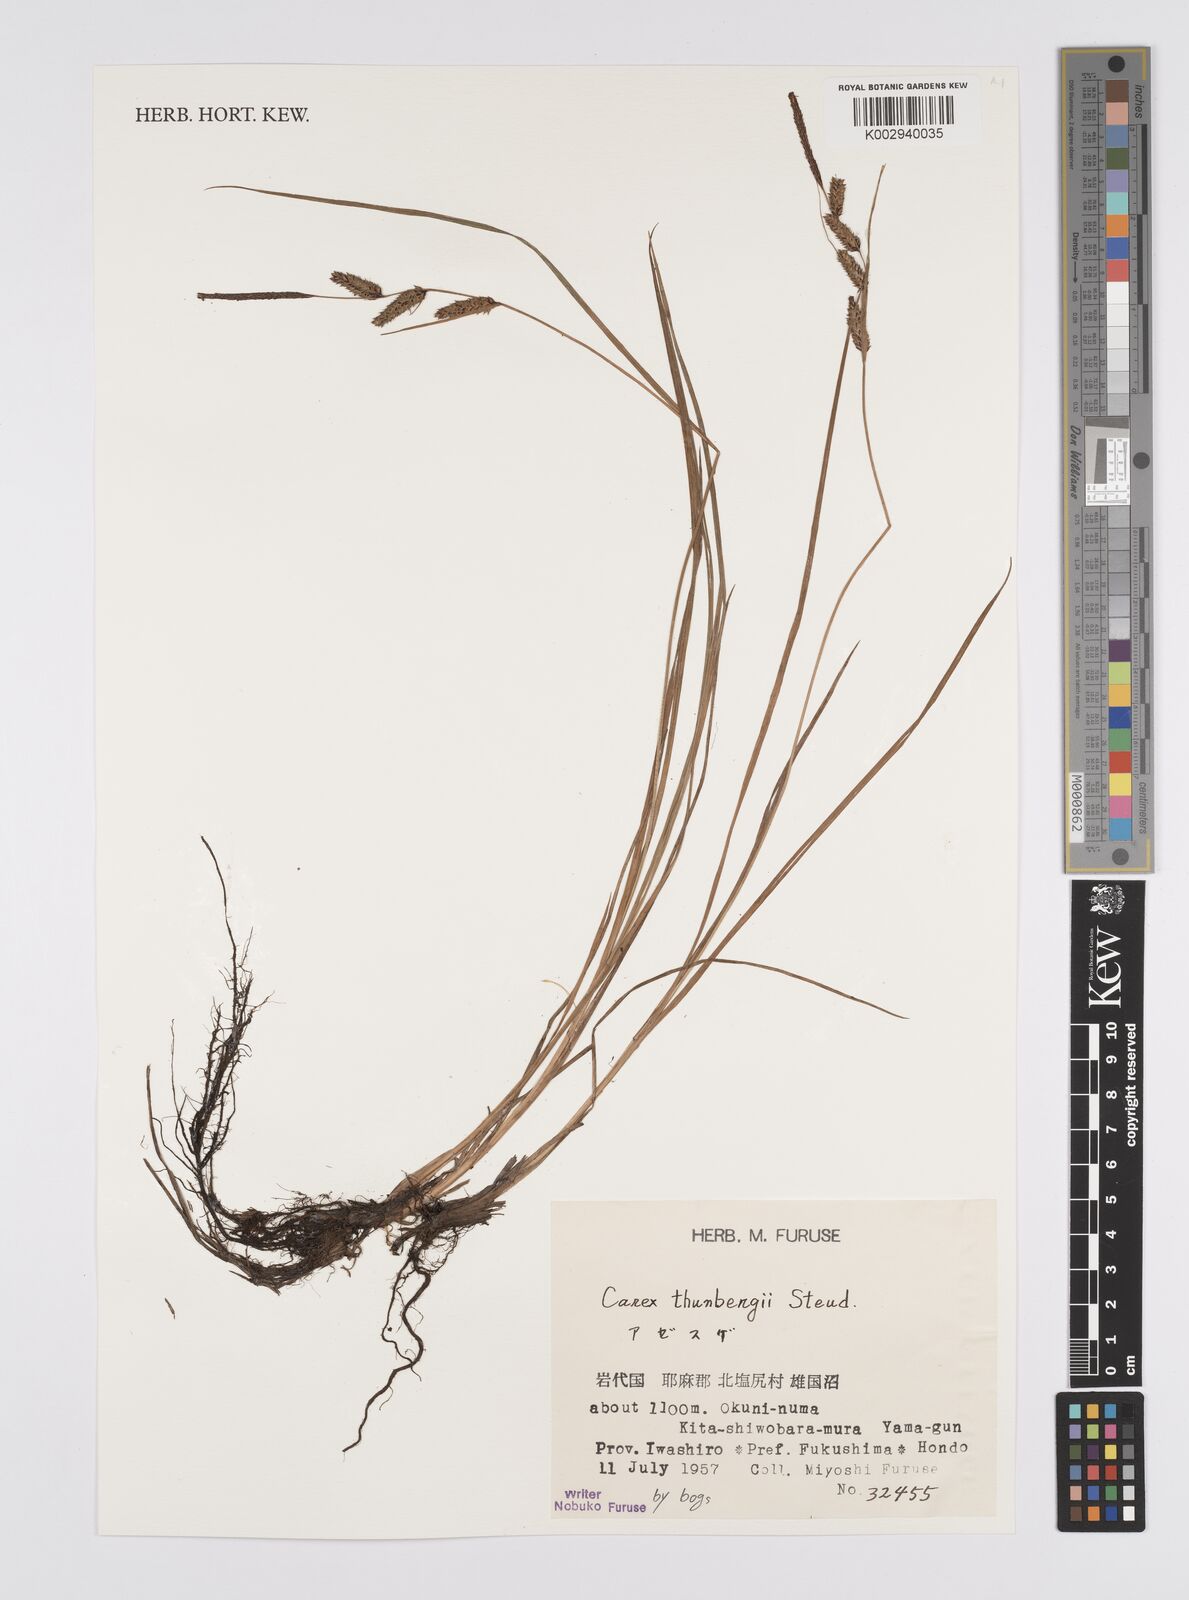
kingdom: Plantae
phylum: Tracheophyta
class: Liliopsida
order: Poales
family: Cyperaceae
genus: Carex
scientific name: Carex thunbergii
